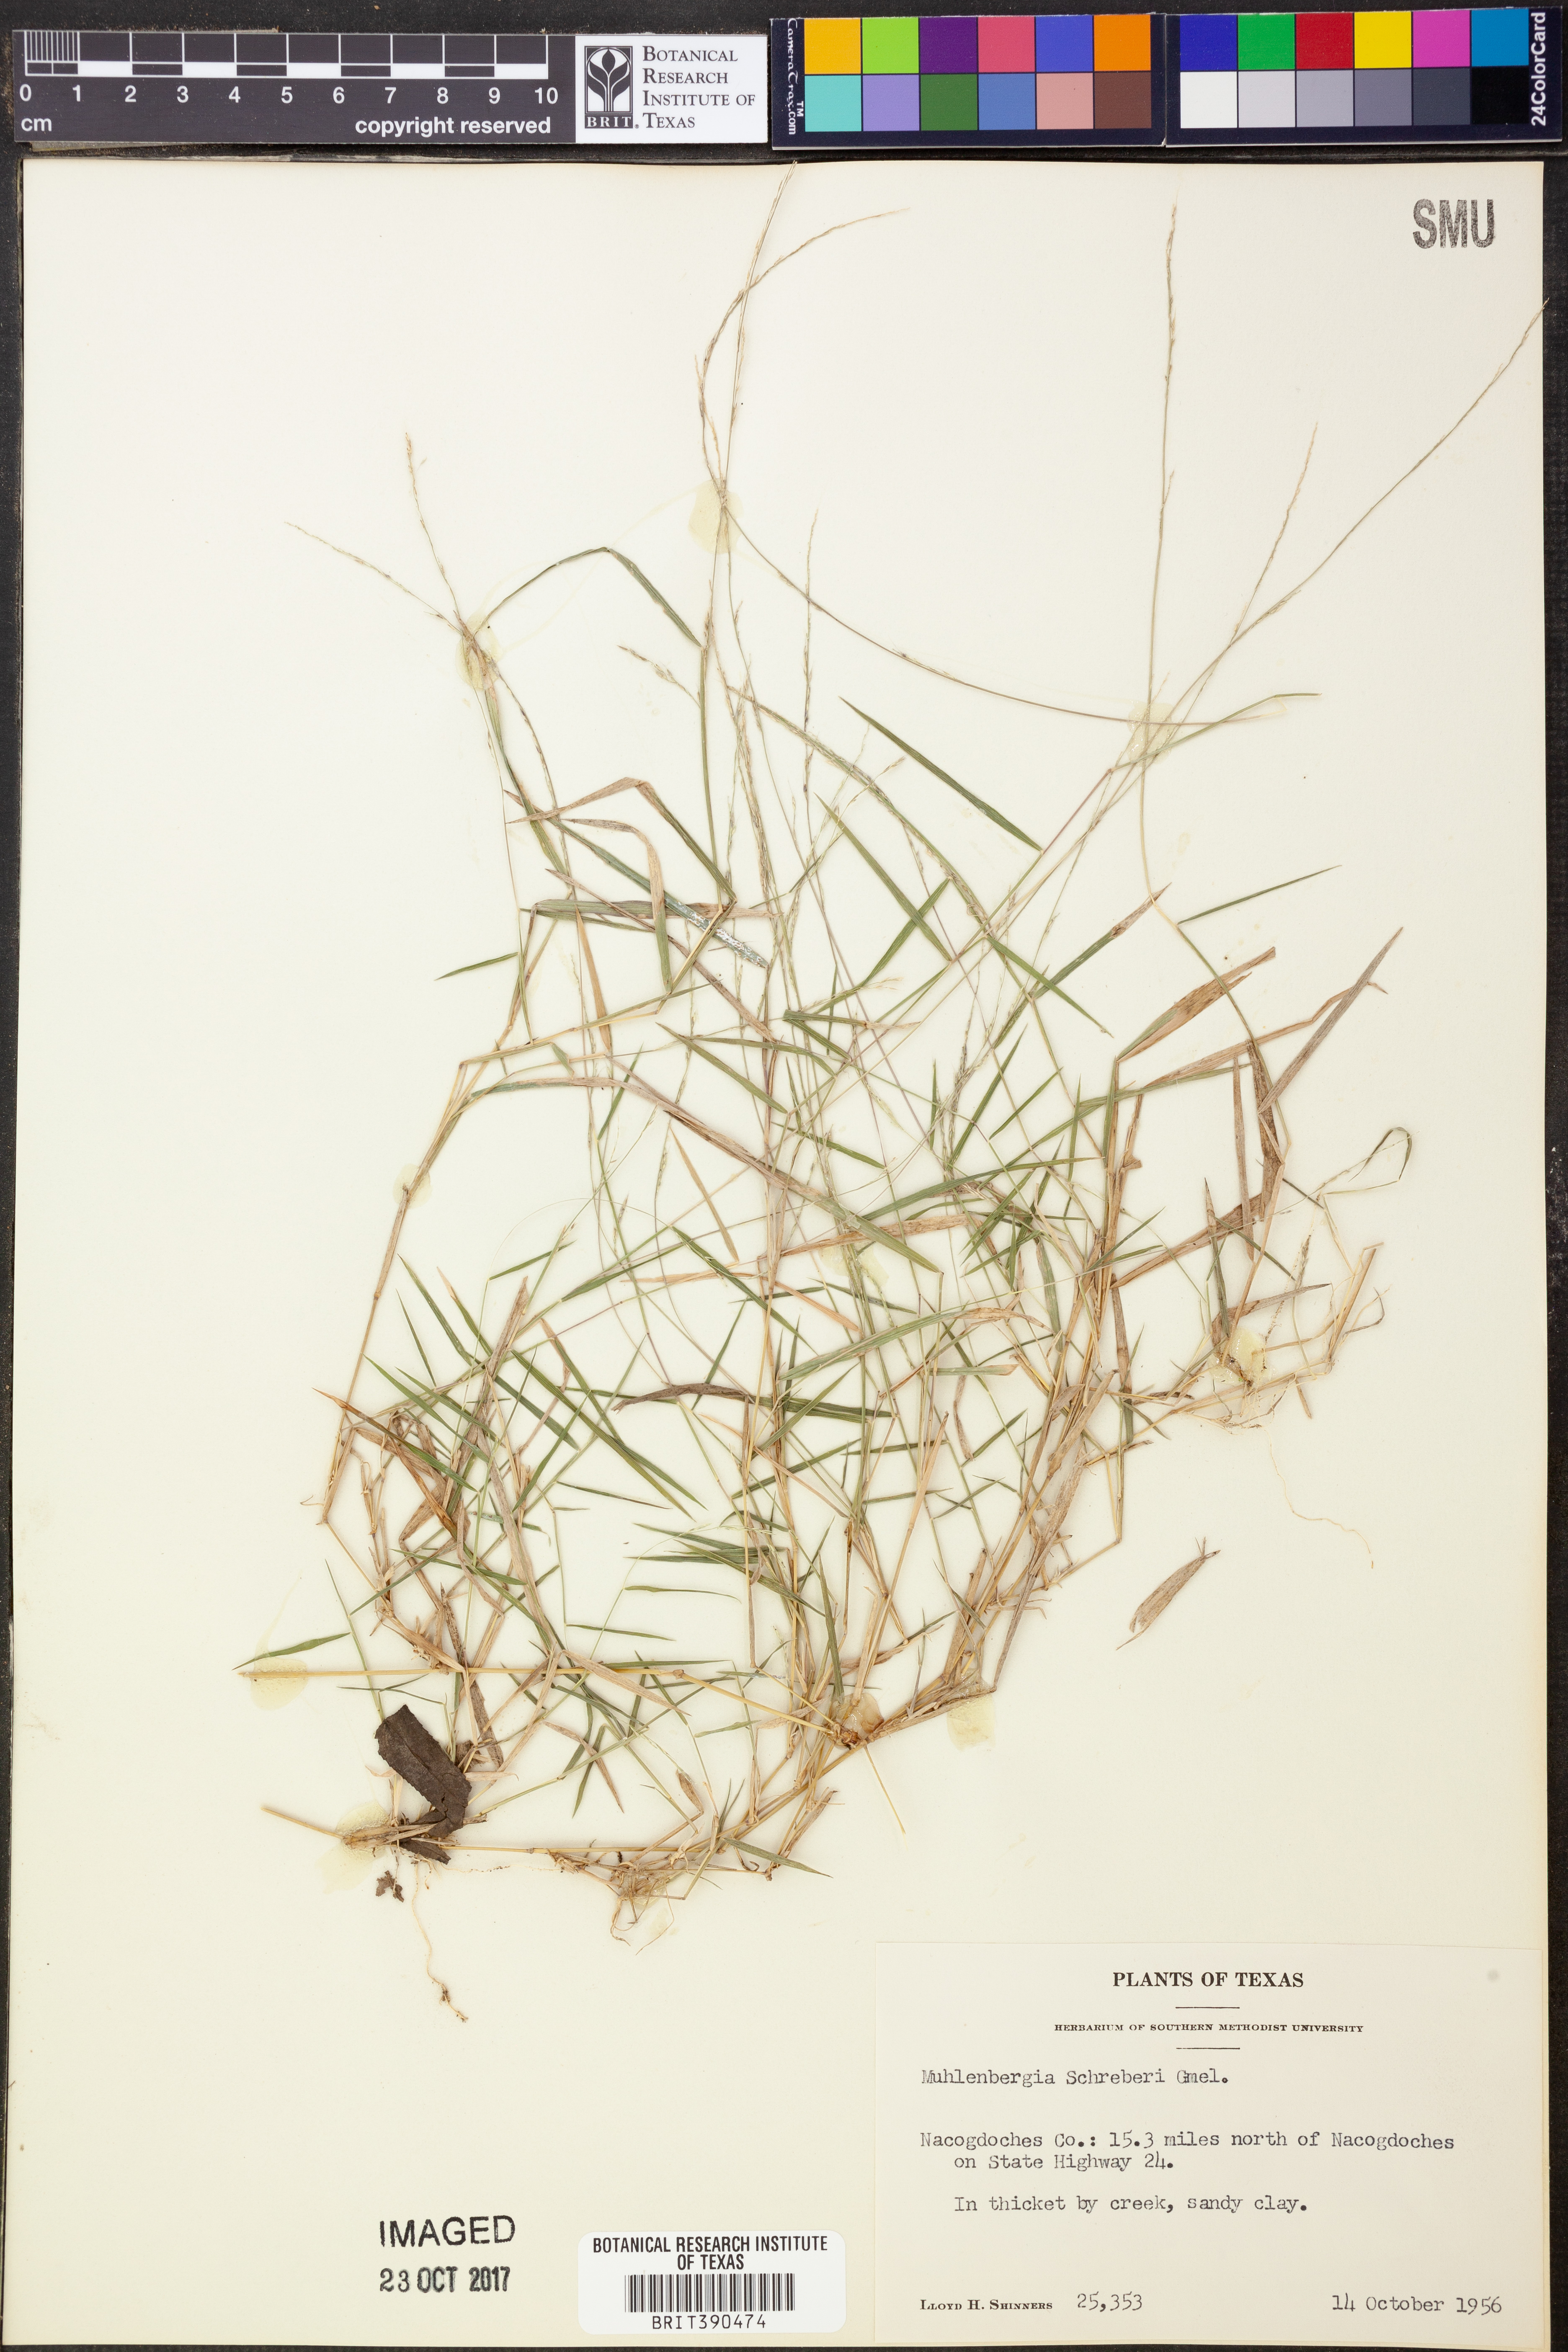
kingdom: Plantae
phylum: Tracheophyta
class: Liliopsida
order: Poales
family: Poaceae
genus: Muhlenbergia
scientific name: Muhlenbergia schreberi
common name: Nimblewill
